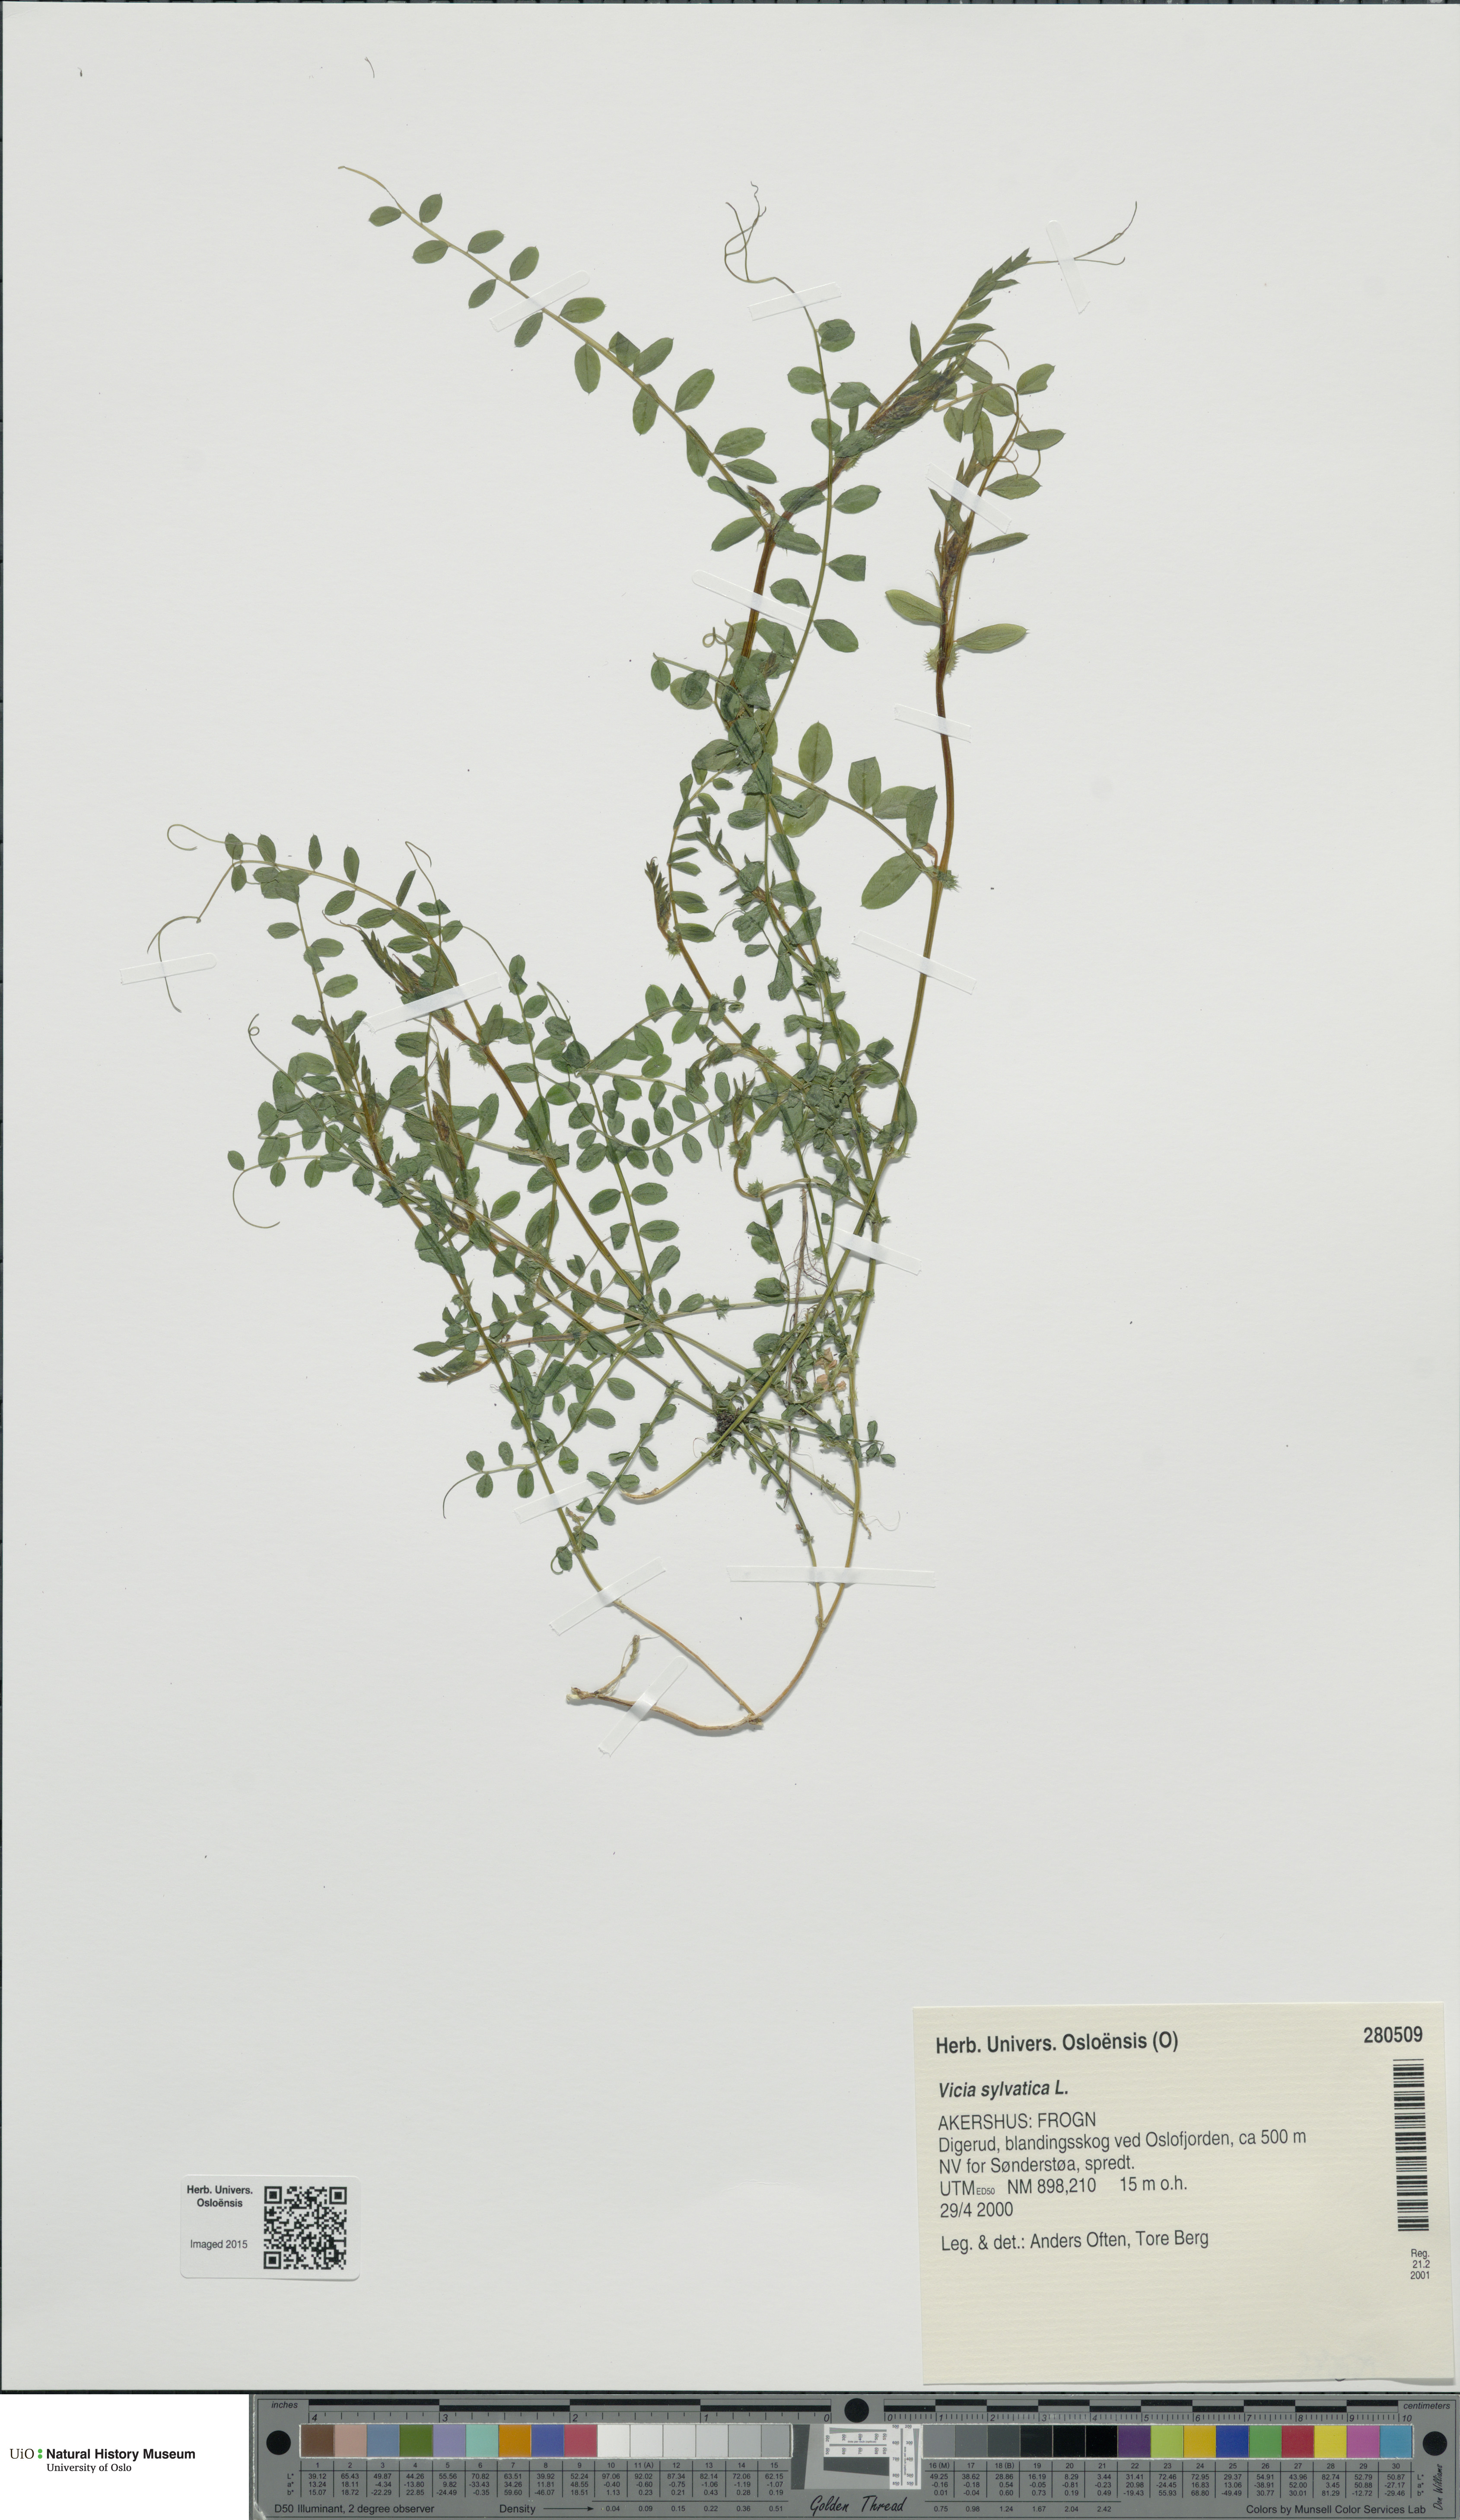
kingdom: Plantae
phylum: Tracheophyta
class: Magnoliopsida
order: Fabales
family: Fabaceae
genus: Vicia
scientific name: Vicia sylvatica
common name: Wood vetch
